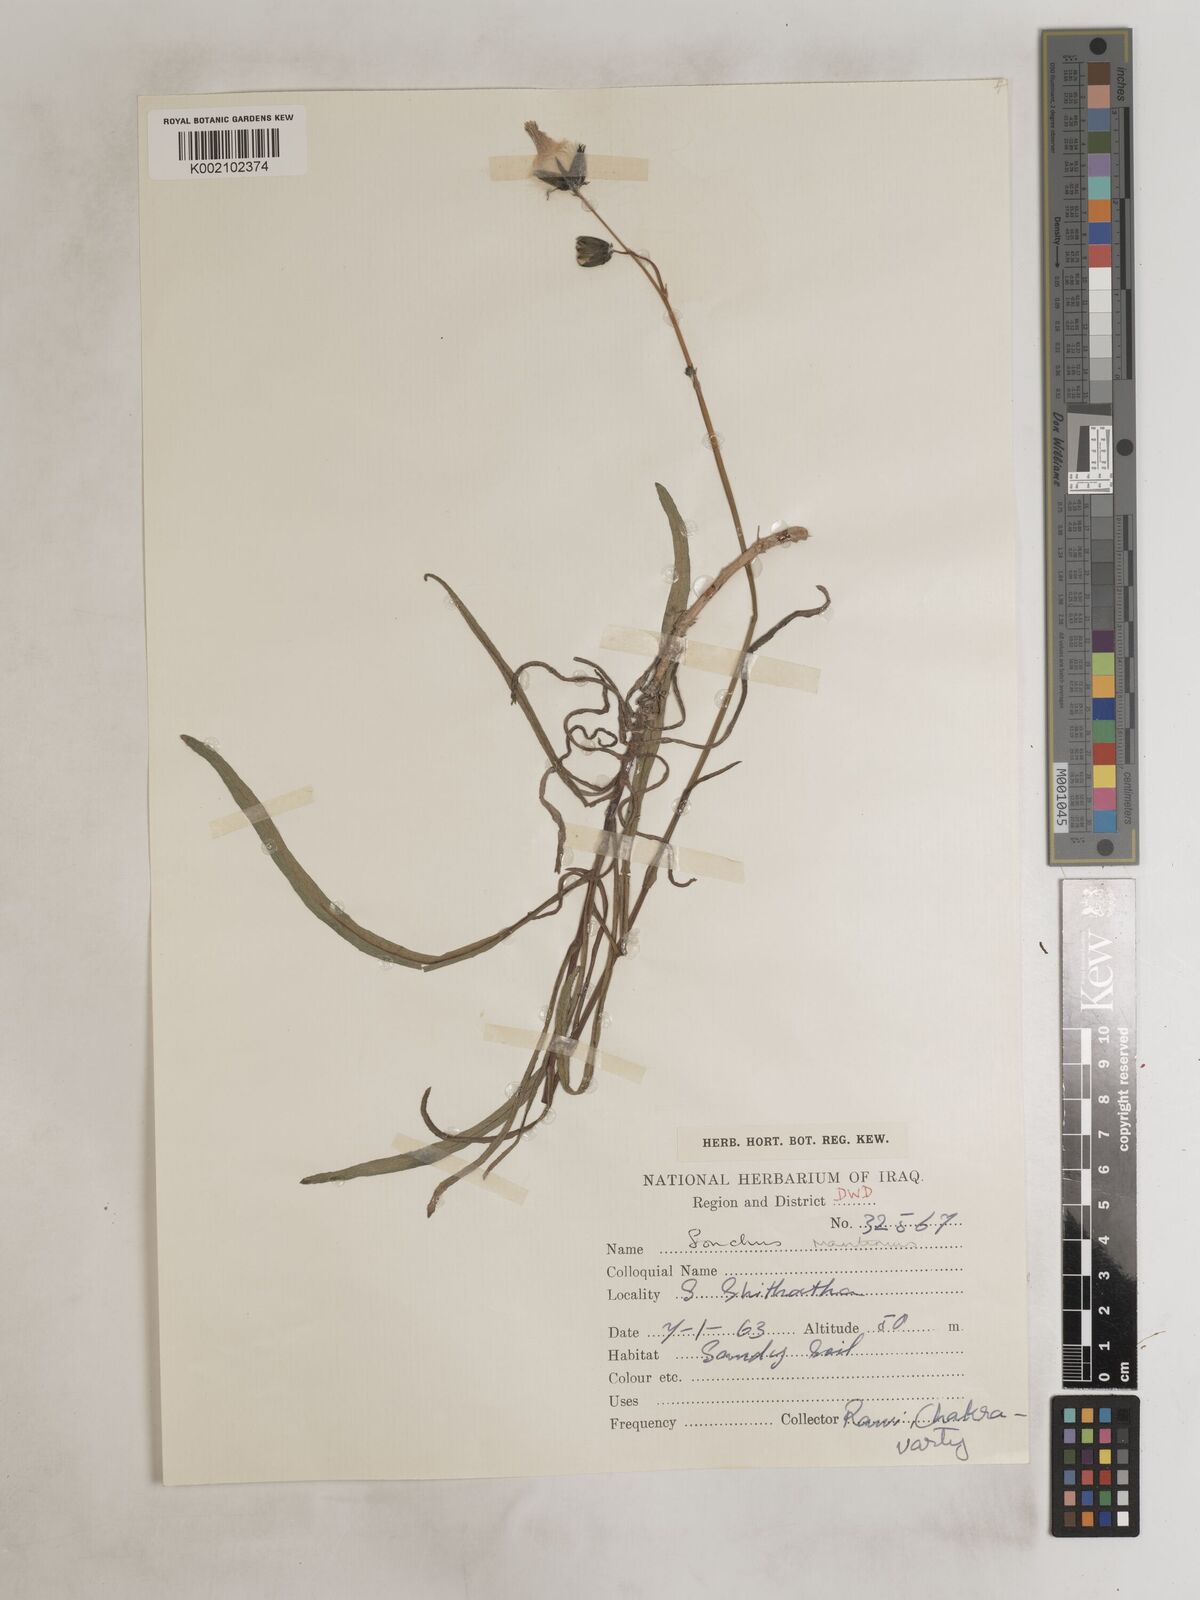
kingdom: Plantae
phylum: Tracheophyta
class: Magnoliopsida
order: Asterales
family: Asteraceae
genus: Sonchus
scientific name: Sonchus maritimus
